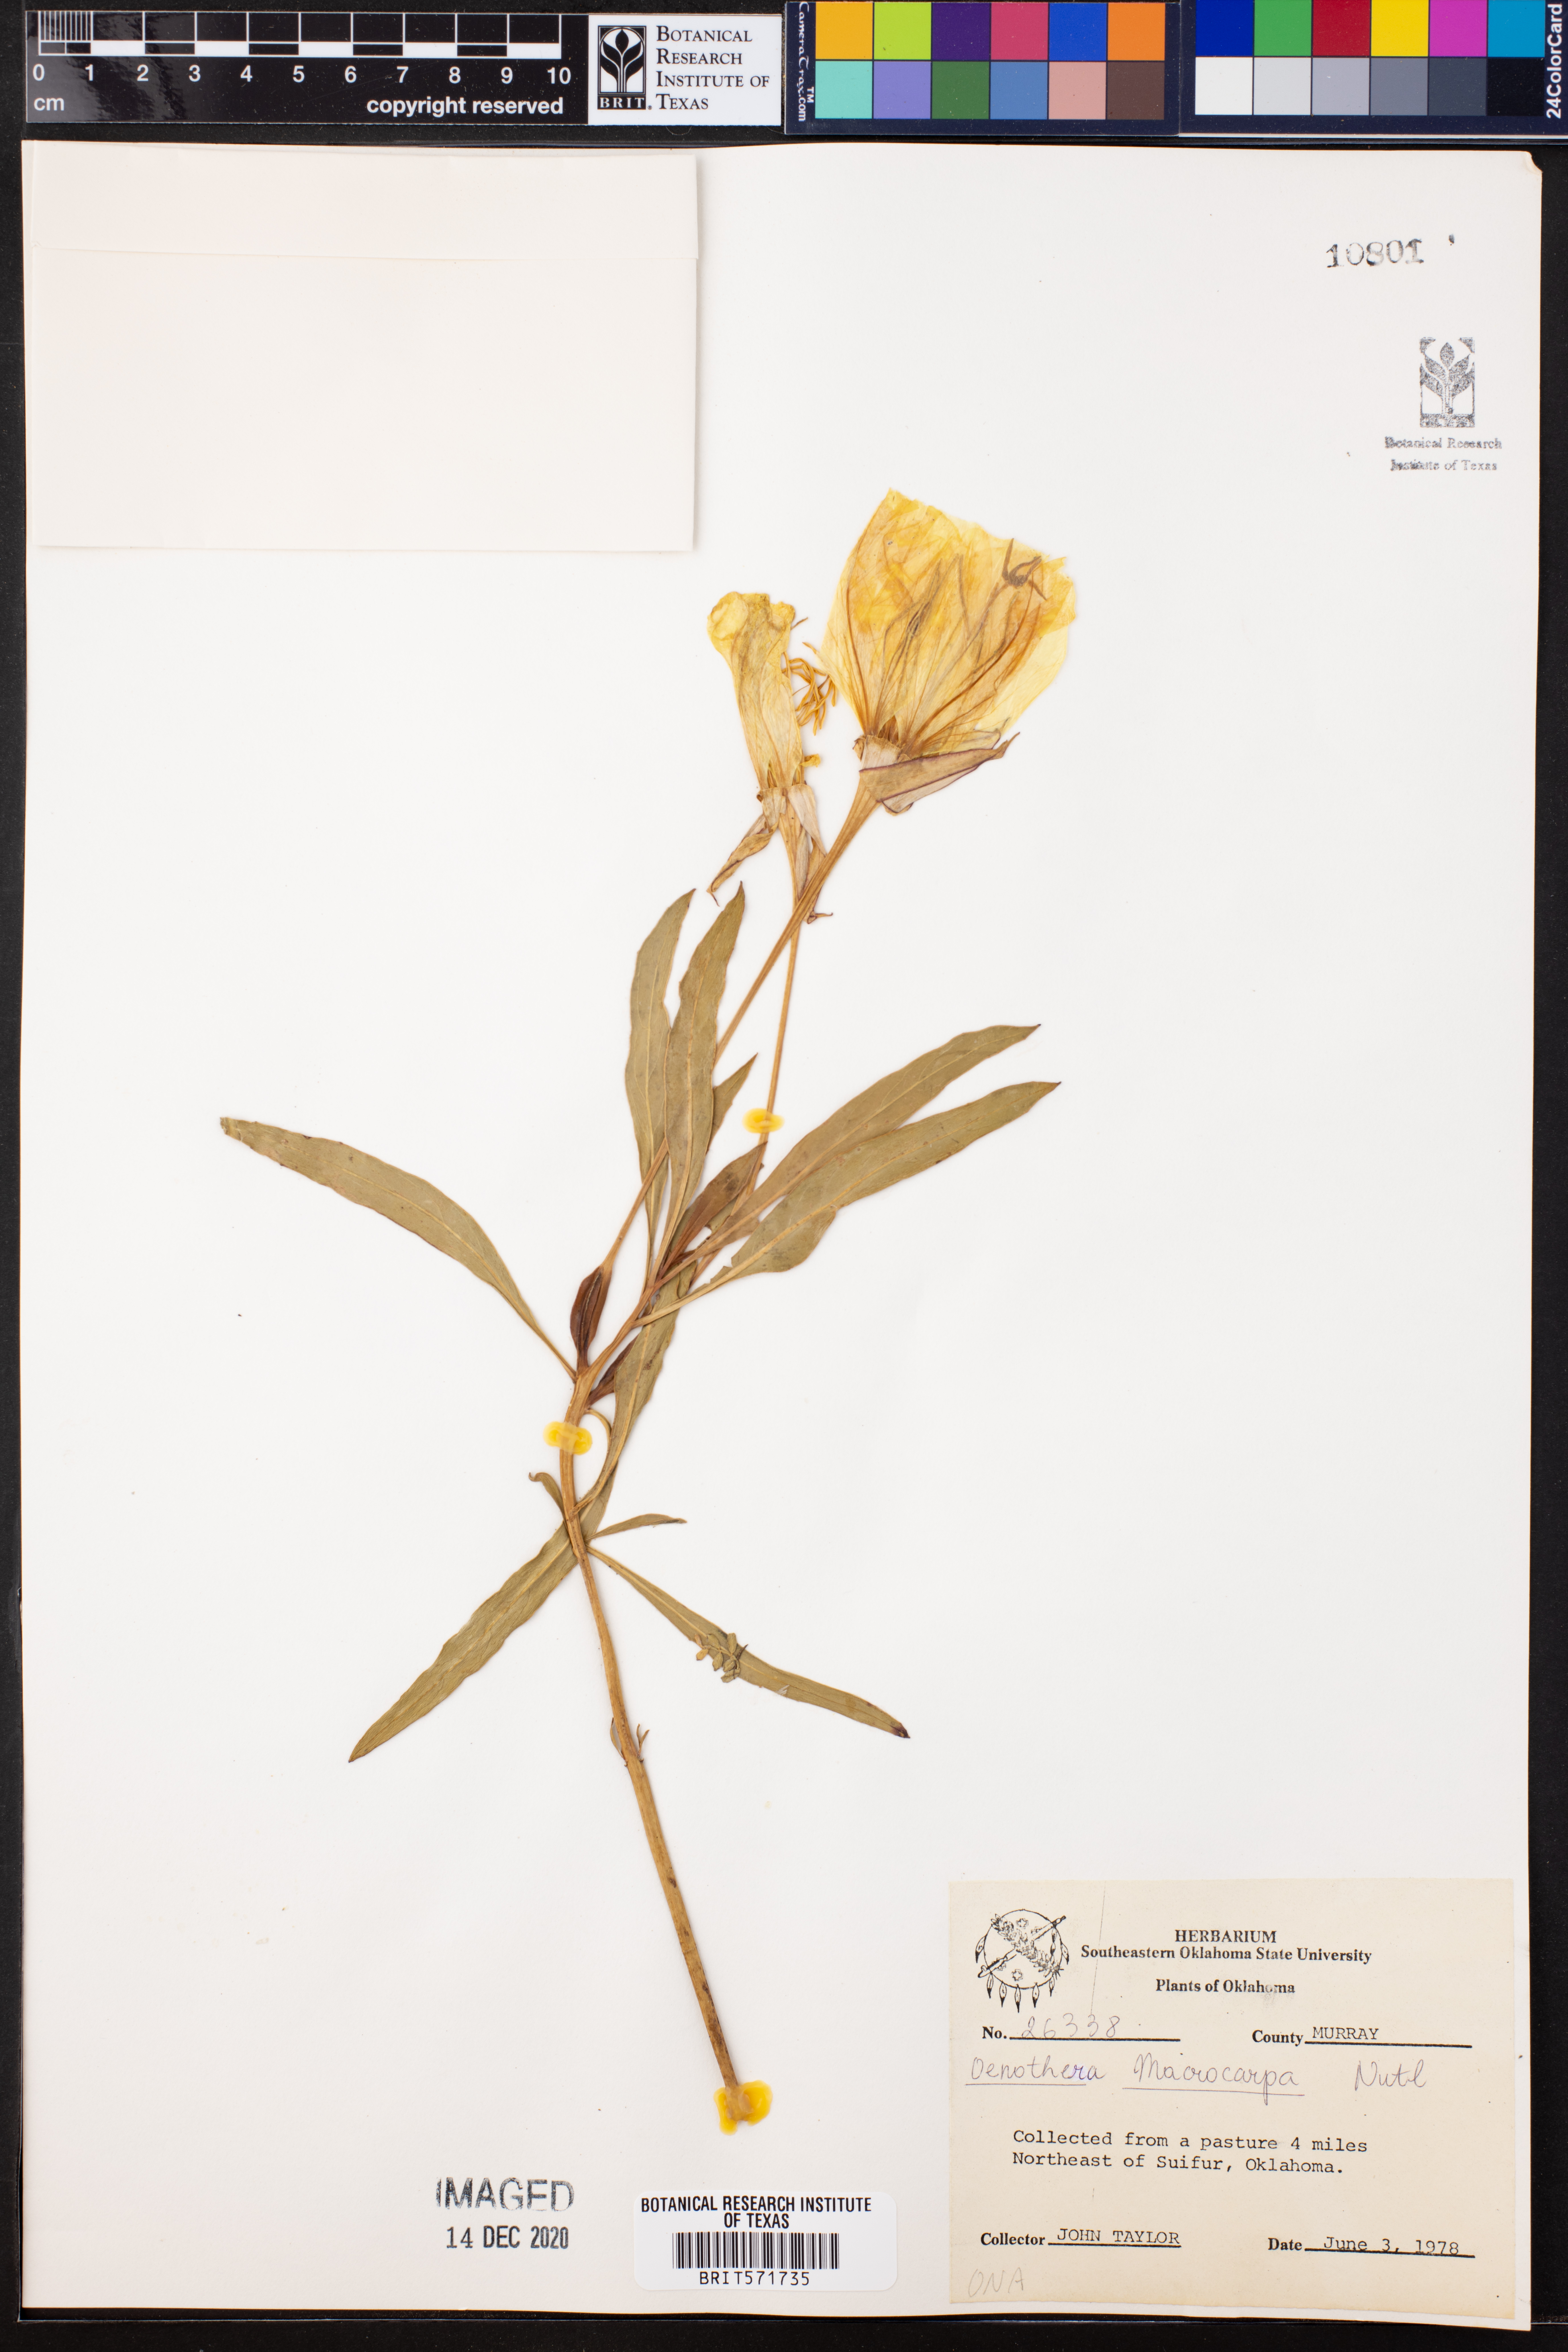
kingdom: Plantae
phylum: Tracheophyta
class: Magnoliopsida
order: Myrtales
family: Onagraceae
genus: Oenothera
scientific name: Oenothera macrocarpa
